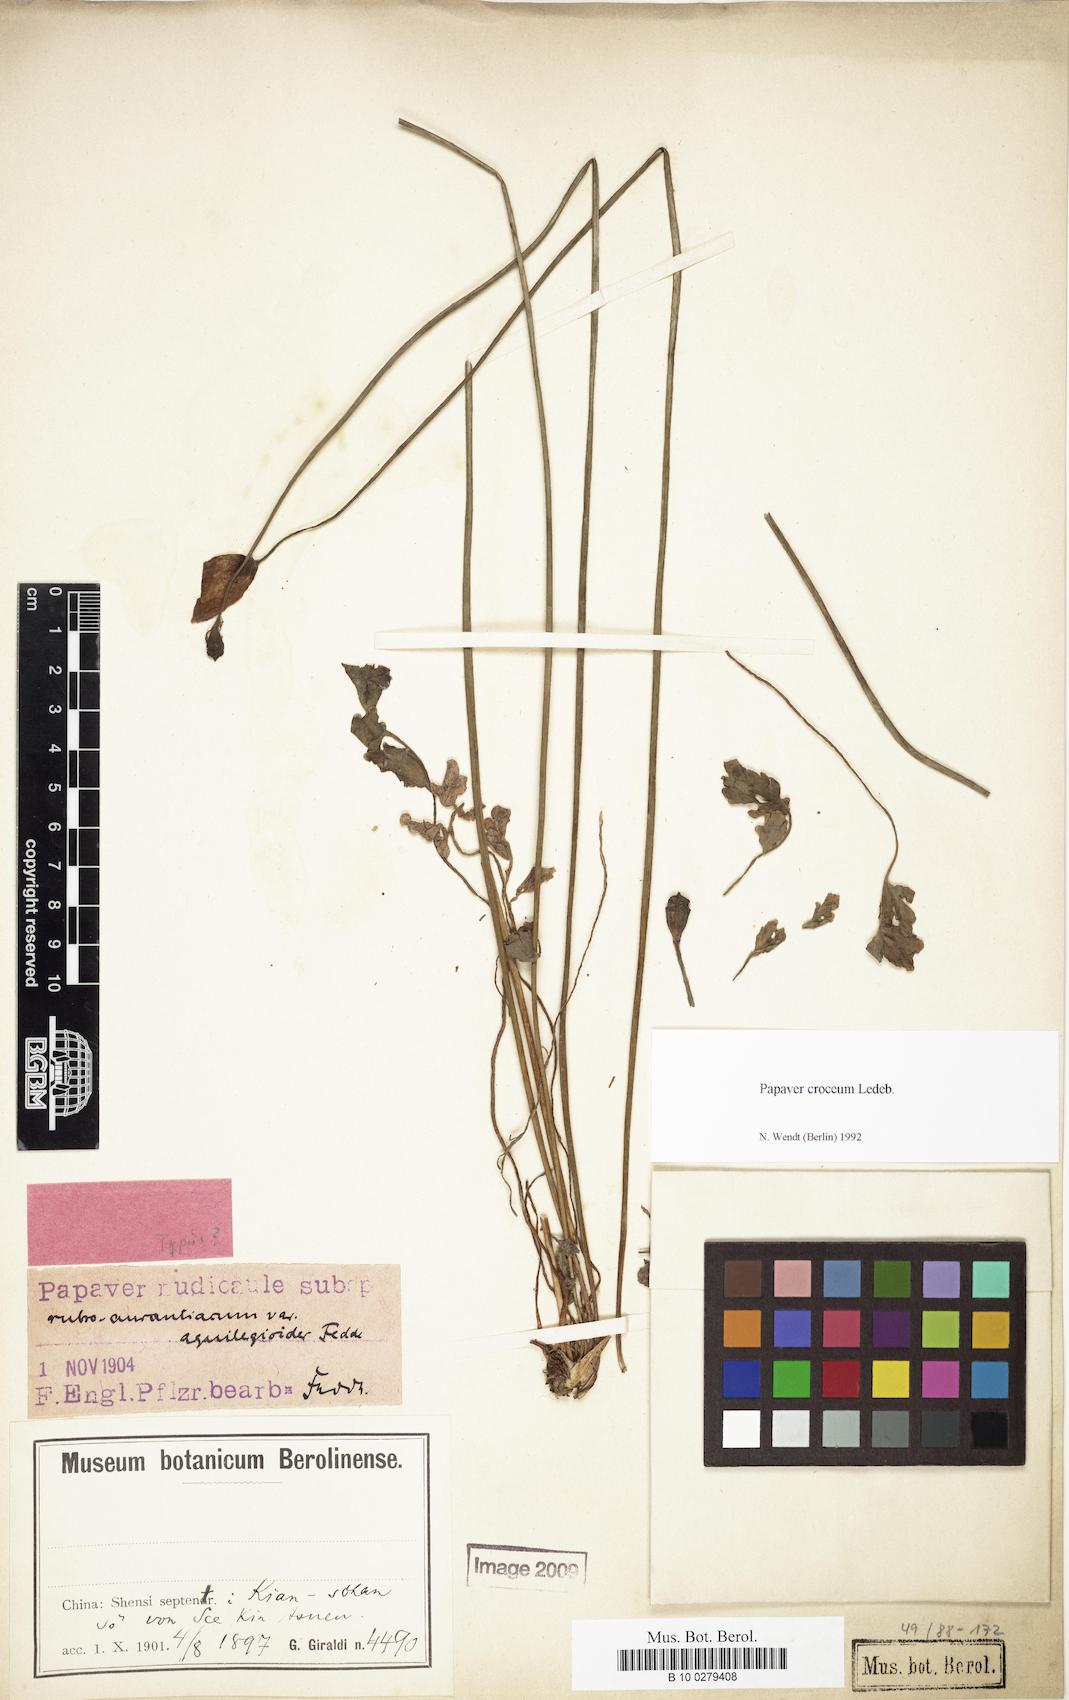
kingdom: Plantae
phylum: Tracheophyta
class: Magnoliopsida
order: Ranunculales
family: Papaveraceae
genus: Papaver
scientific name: Papaver croceum
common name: Siberian poppy
